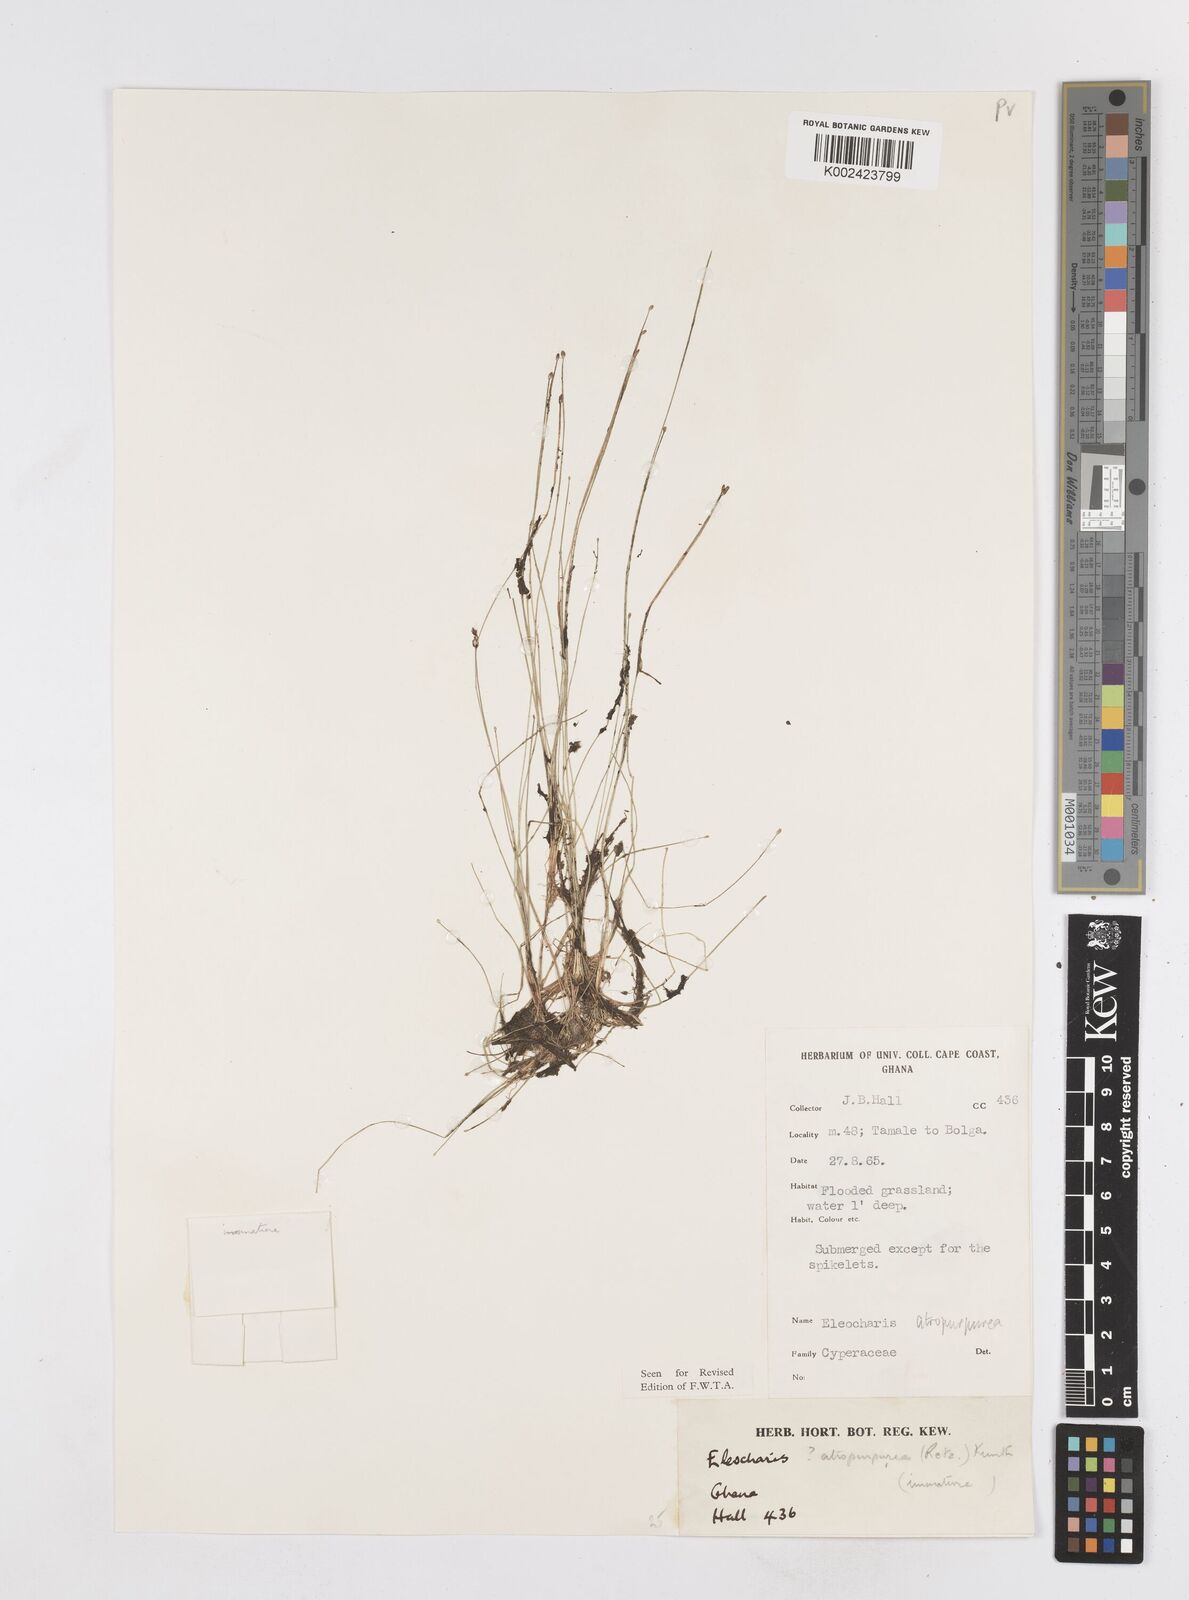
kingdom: Plantae
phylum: Tracheophyta
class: Liliopsida
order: Poales
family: Cyperaceae
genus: Eleocharis
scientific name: Eleocharis atropurpurea
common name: Purple spikerush
